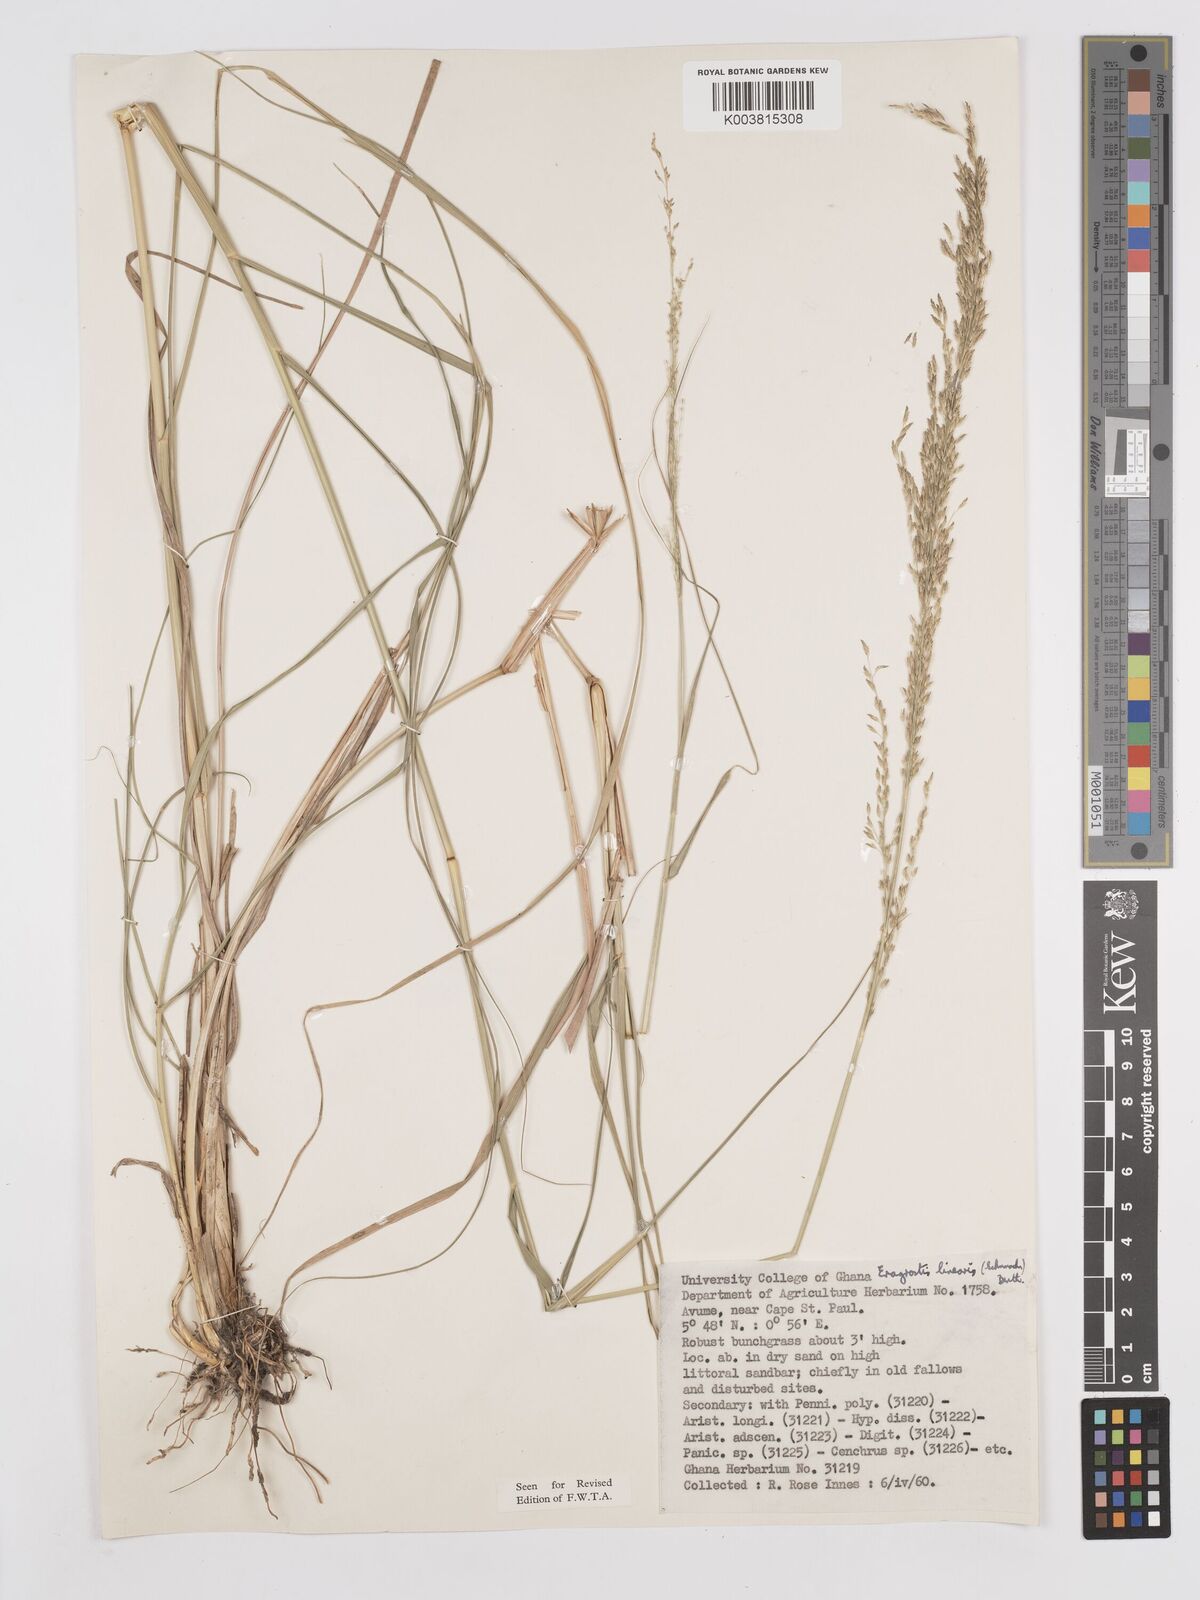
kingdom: Plantae
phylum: Tracheophyta
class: Liliopsida
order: Poales
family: Poaceae
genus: Eragrostis
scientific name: Eragrostis prolifera
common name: Dominican lovegrass
